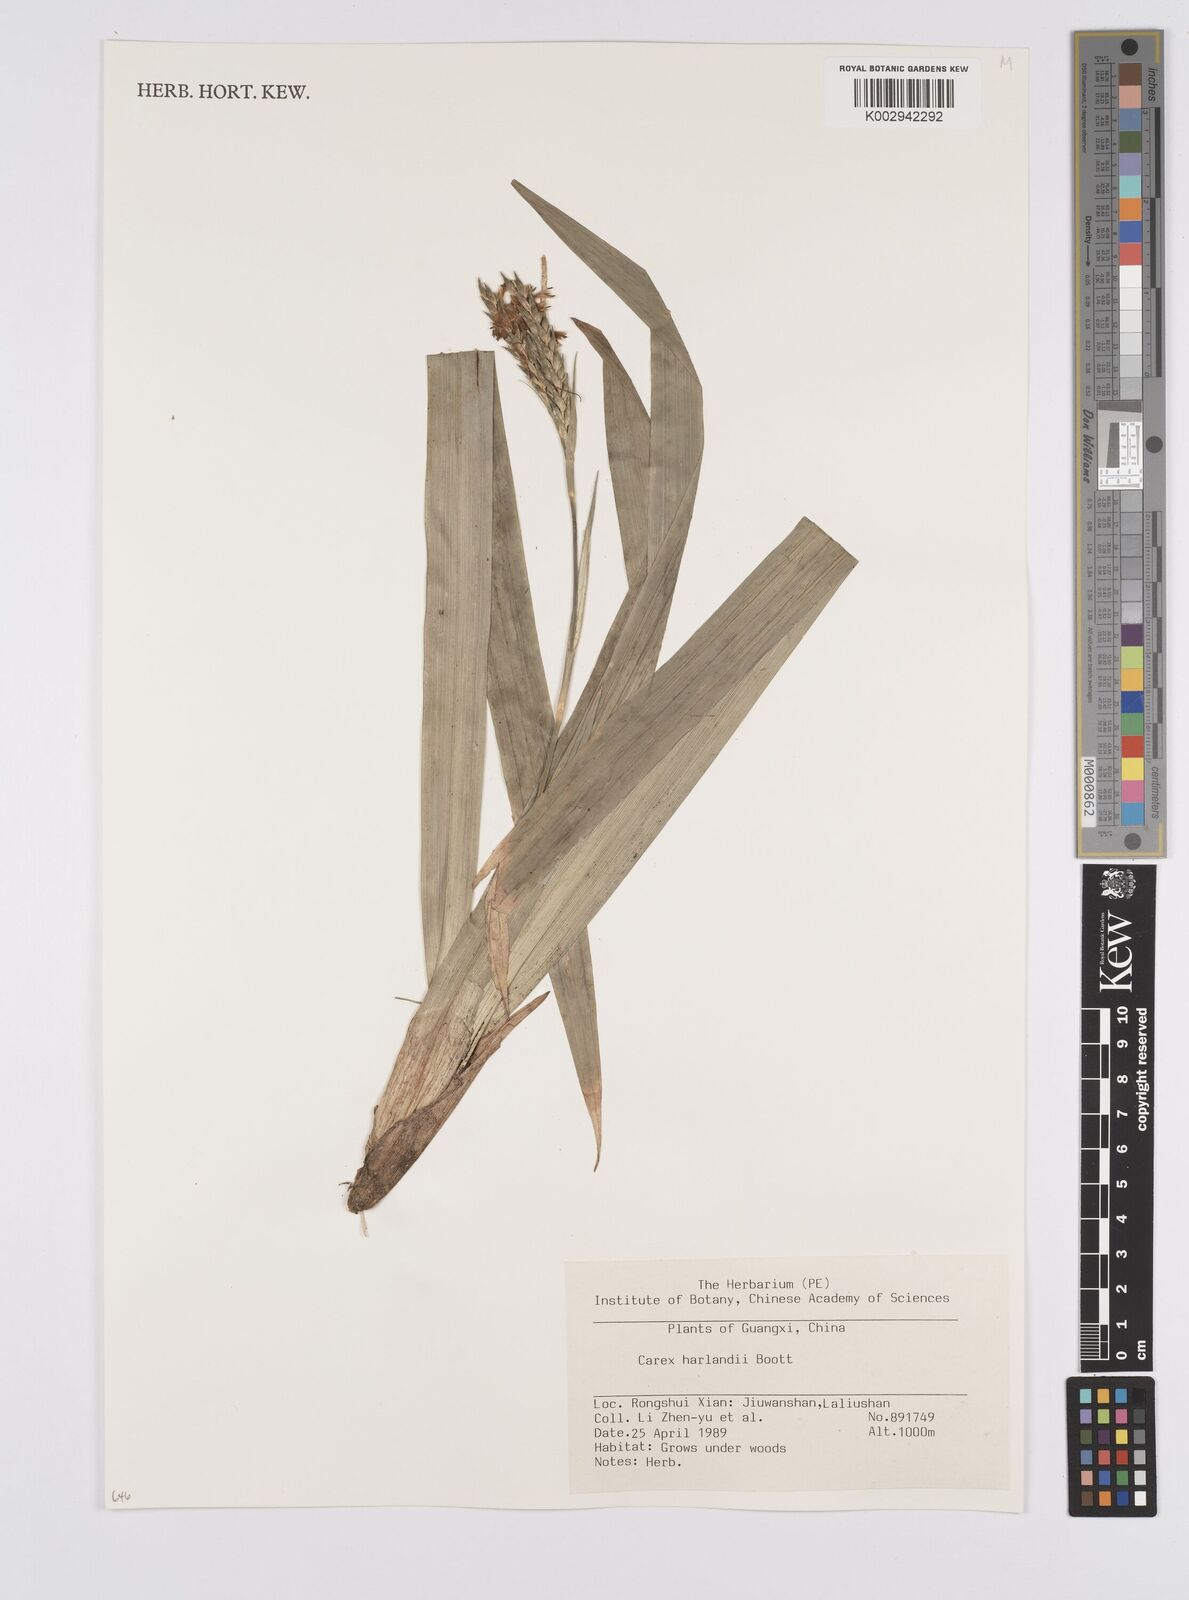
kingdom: Plantae
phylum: Tracheophyta
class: Liliopsida
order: Poales
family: Cyperaceae
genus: Carex
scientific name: Carex harlandii
